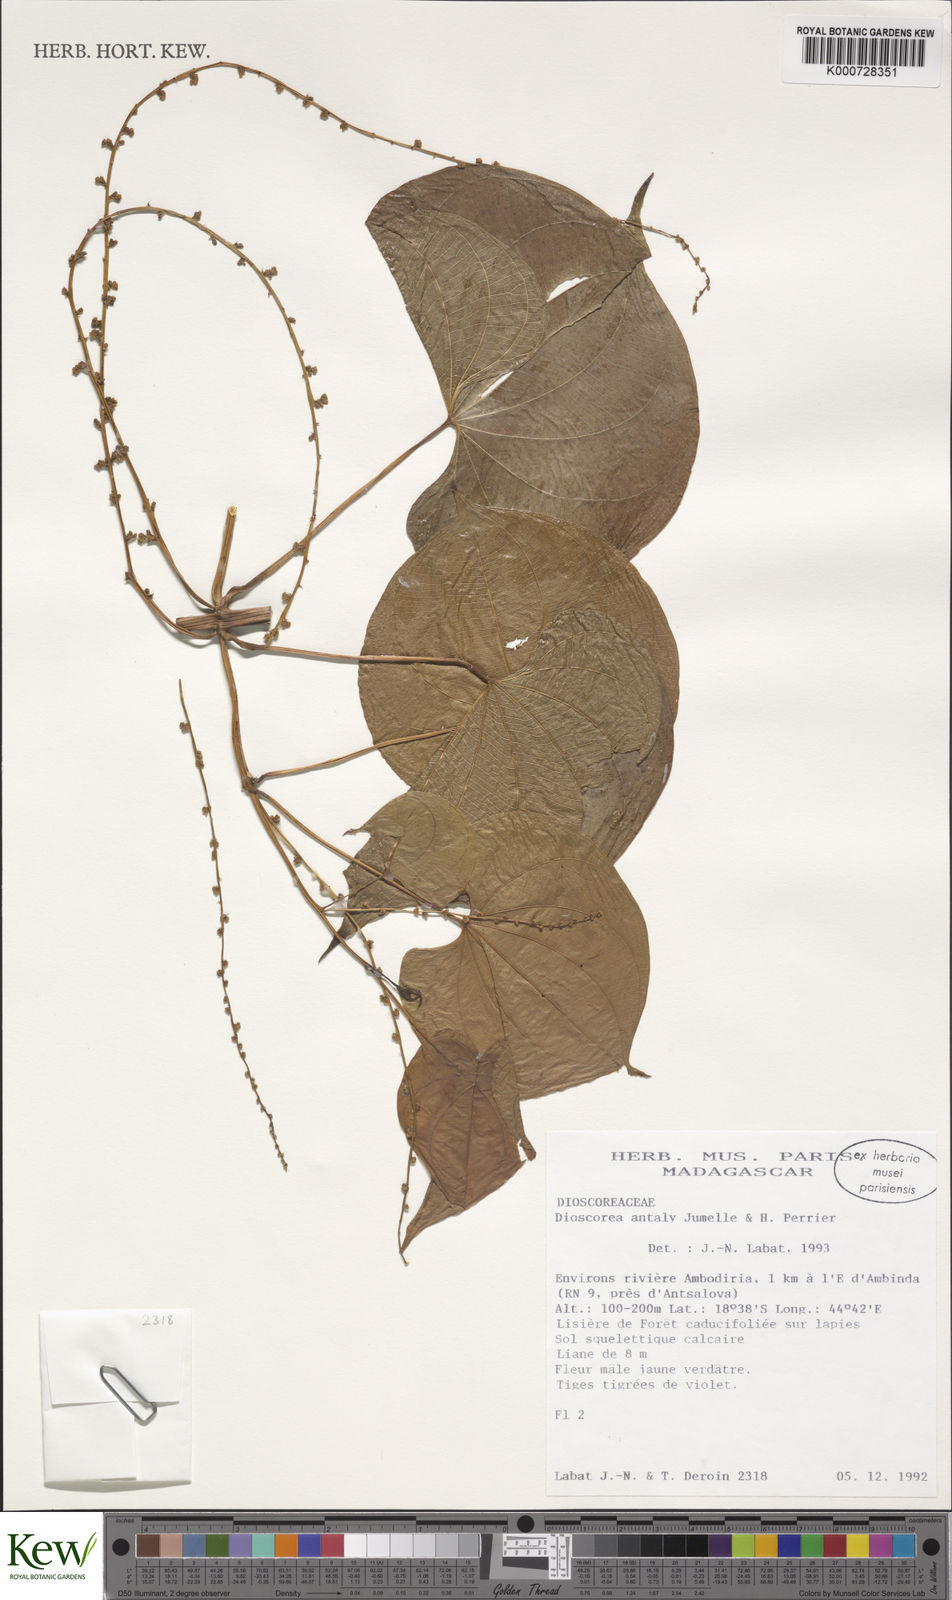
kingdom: Plantae
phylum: Tracheophyta
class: Liliopsida
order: Dioscoreales
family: Dioscoreaceae
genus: Dioscorea
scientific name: Dioscorea antaly
